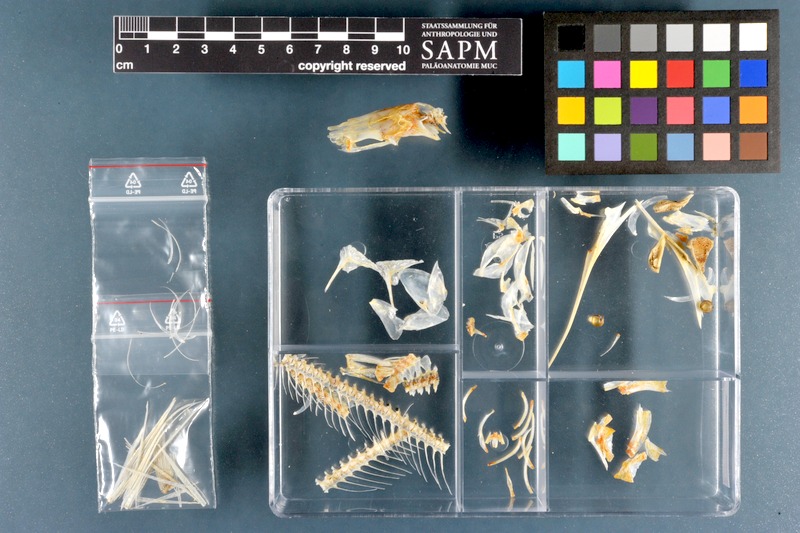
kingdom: Animalia
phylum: Chordata
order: Beloniformes
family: Hemiramphidae
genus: Hemiramphus
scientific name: Hemiramphus far
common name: Black-barred halfbeak
